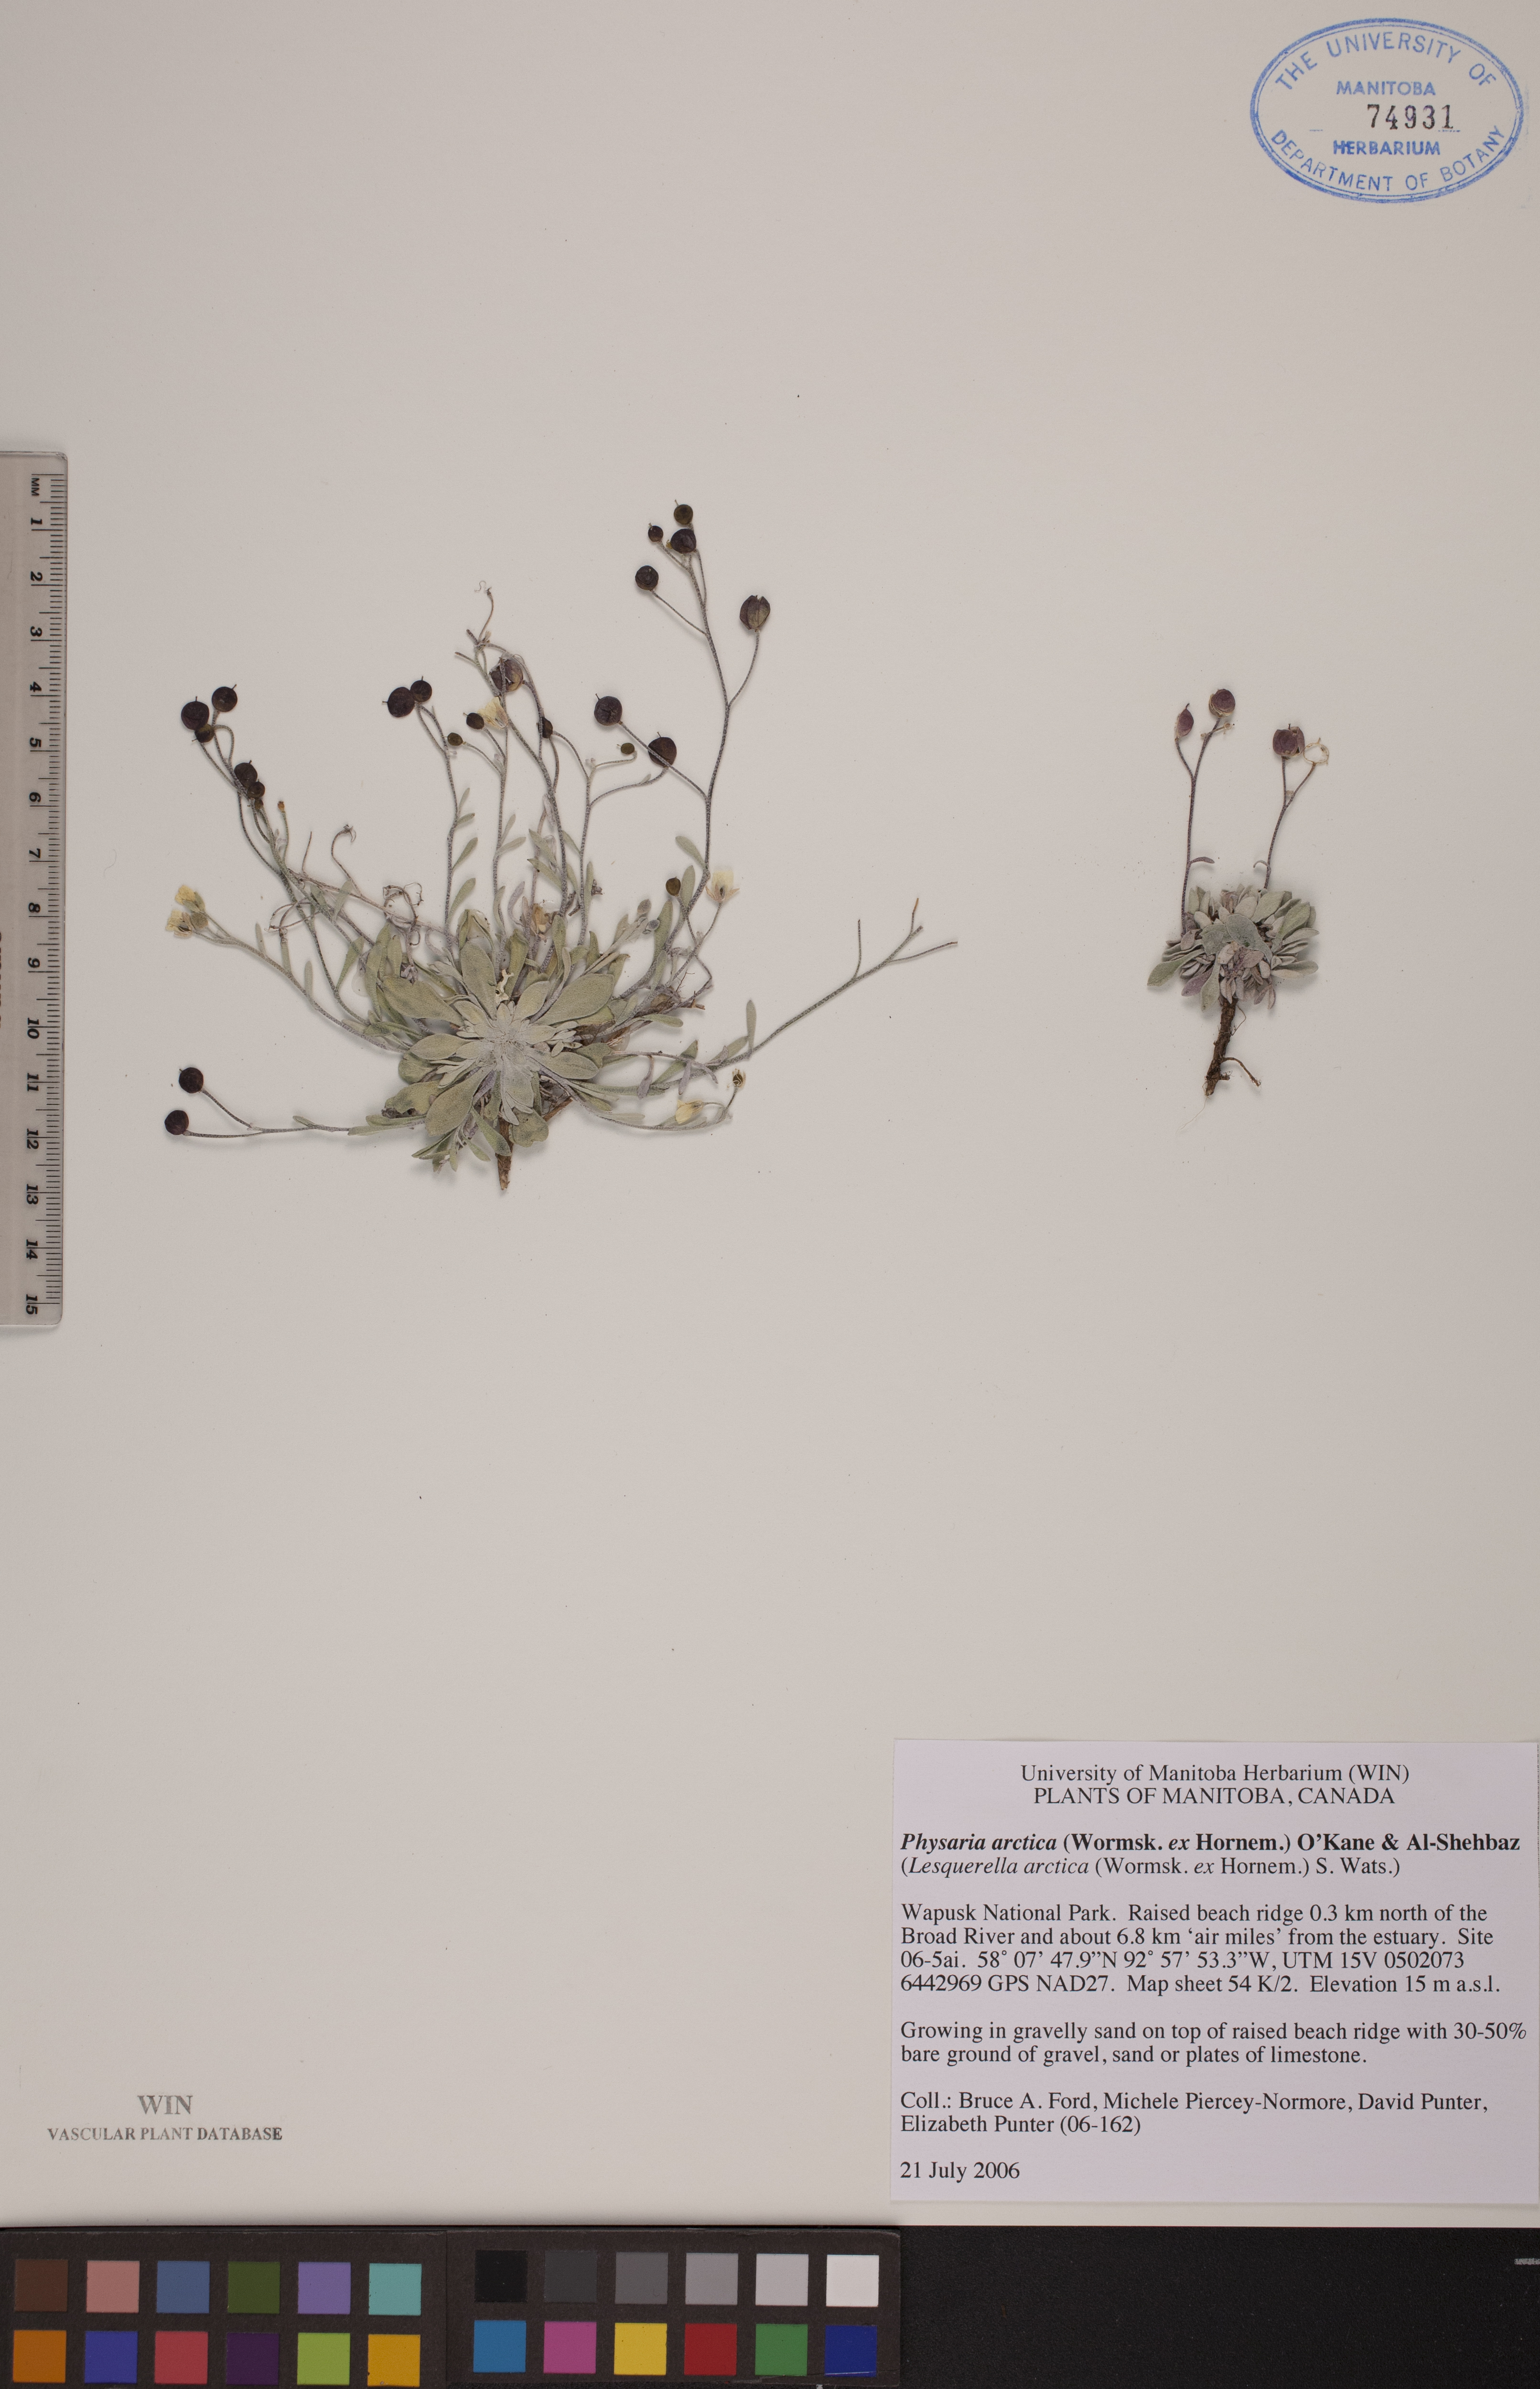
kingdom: Plantae
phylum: Tracheophyta
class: Magnoliopsida
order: Brassicales
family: Brassicaceae
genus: Physaria
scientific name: Physaria arctica
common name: Arctic bladderpod
